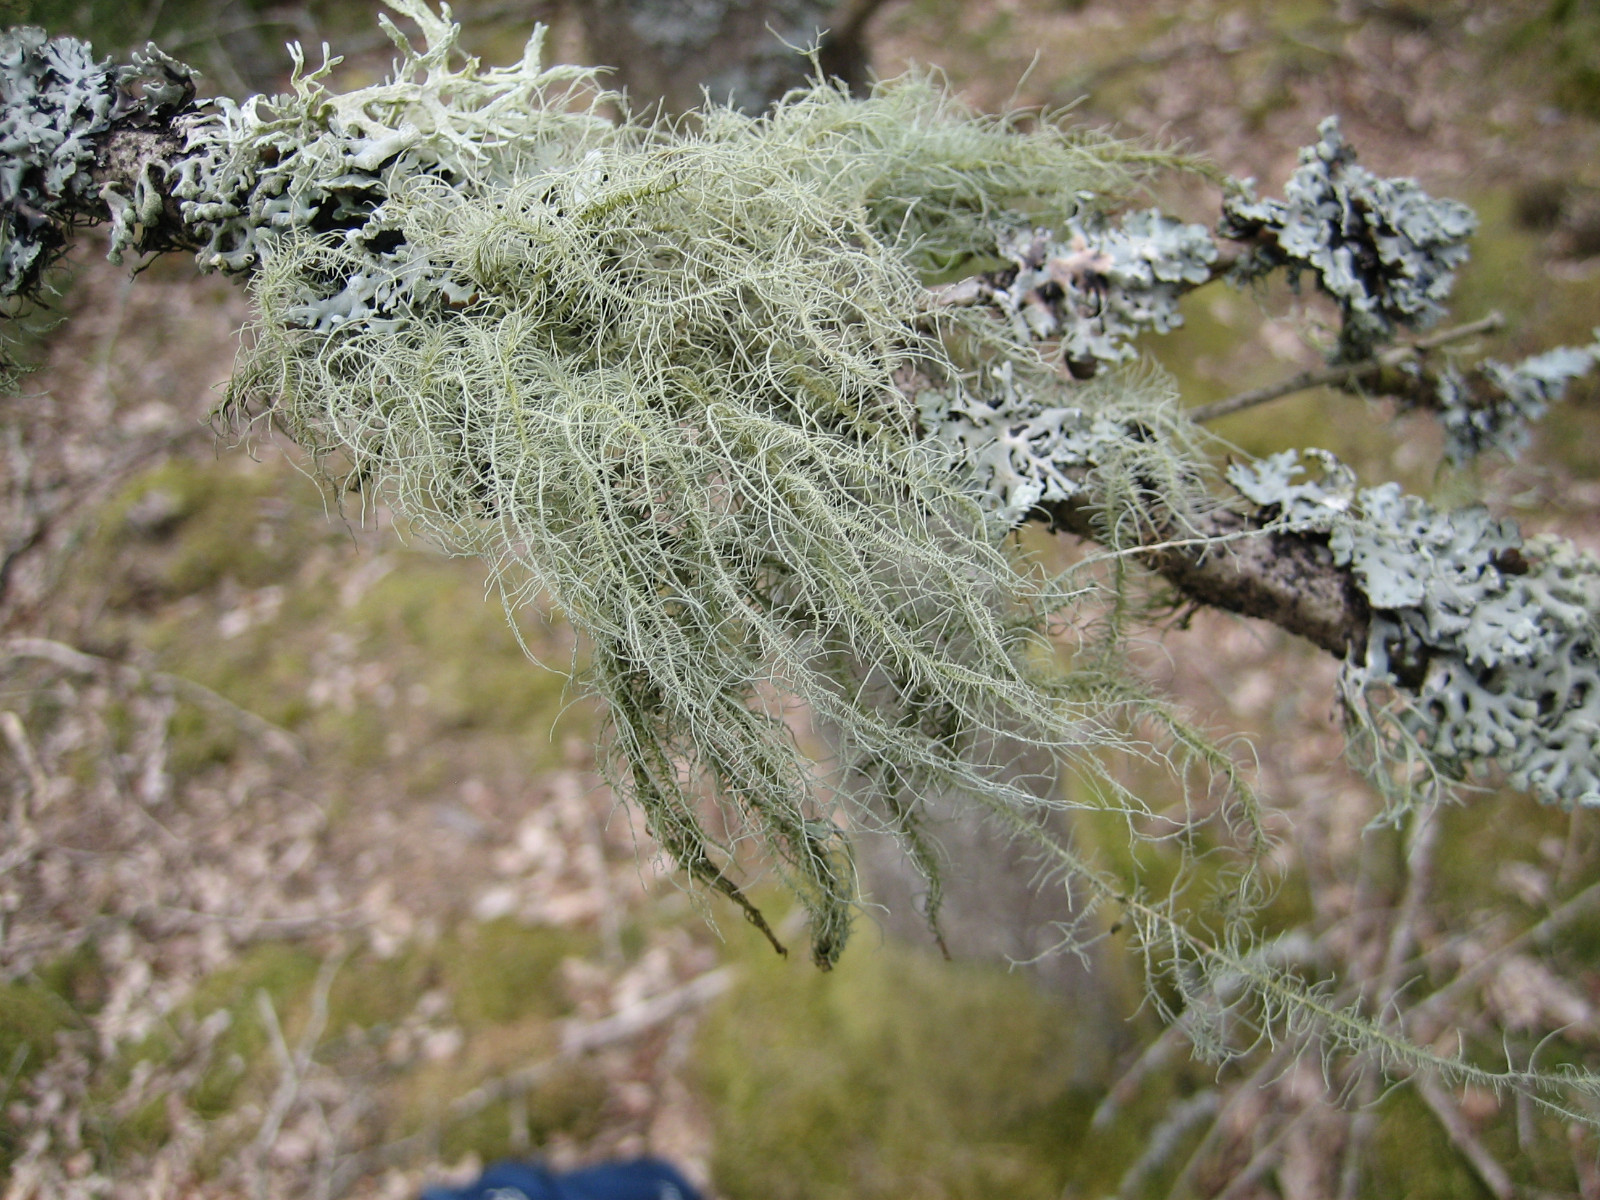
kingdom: Fungi
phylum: Ascomycota
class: Lecanoromycetes
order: Lecanorales
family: Parmeliaceae
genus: Usnea
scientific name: Usnea dasypoga
